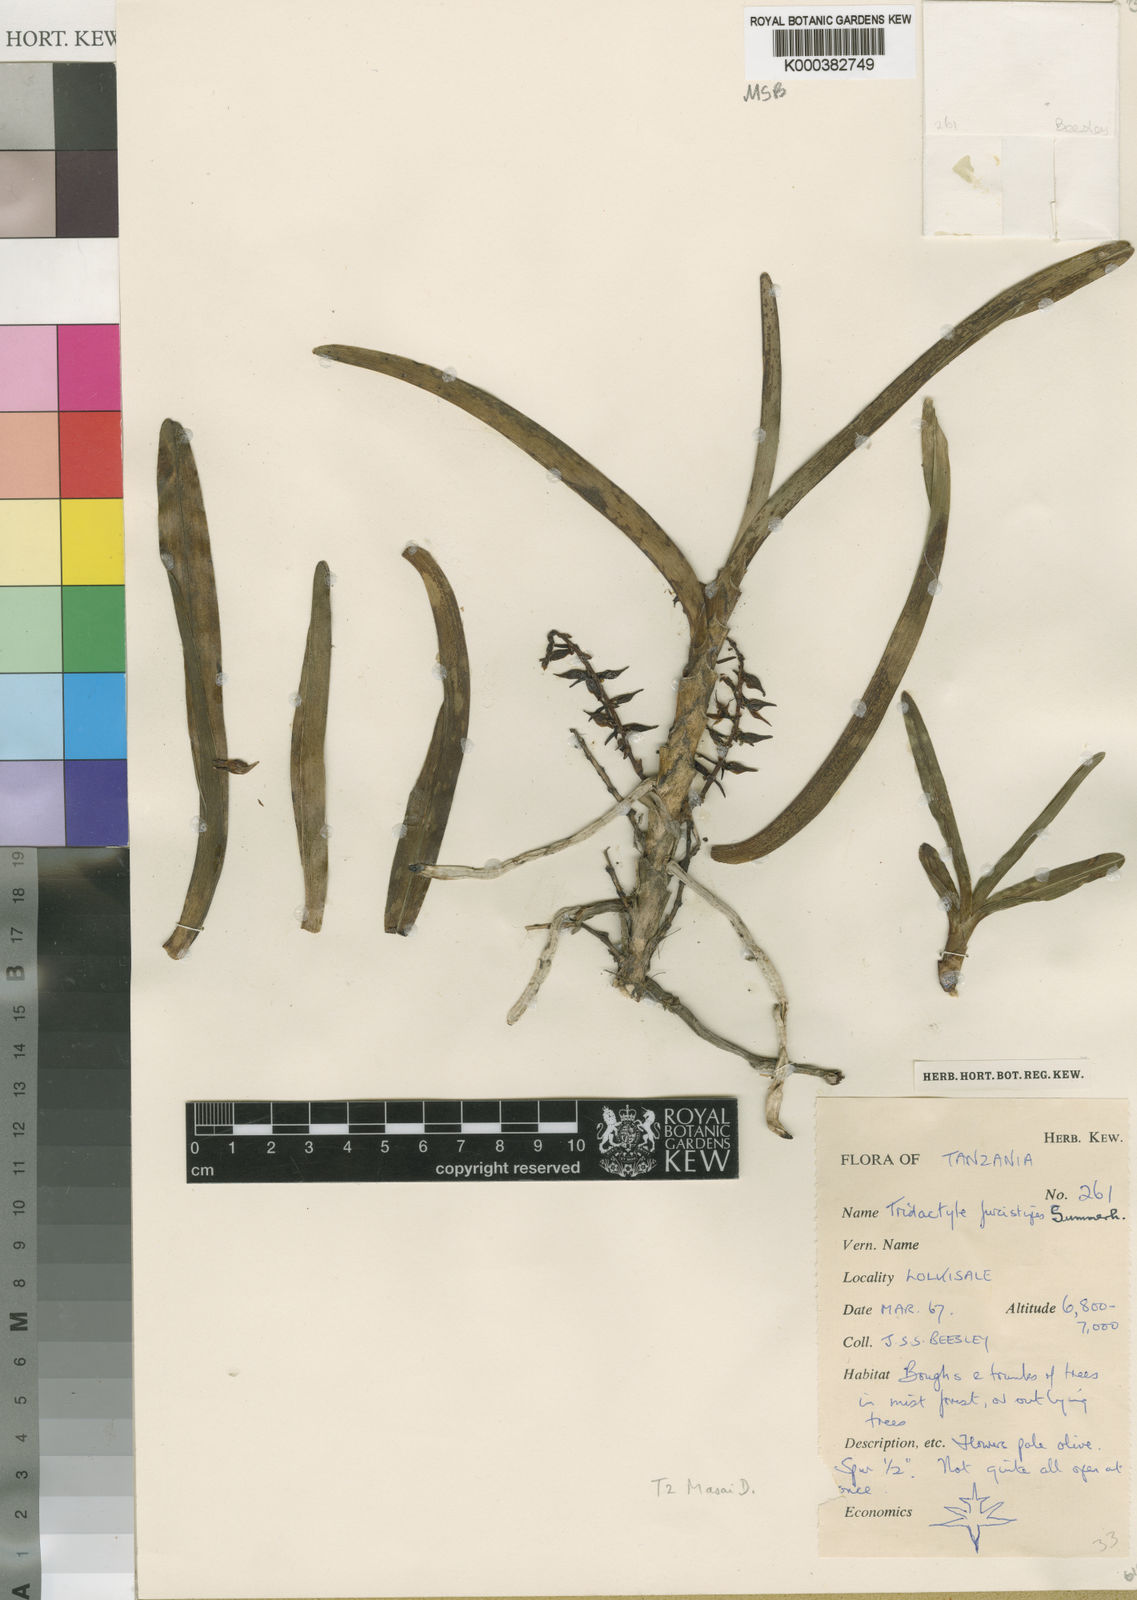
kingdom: Plantae
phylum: Tracheophyta
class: Liliopsida
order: Asparagales
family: Orchidaceae
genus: Ypsilopus
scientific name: Ypsilopus furcistipes
